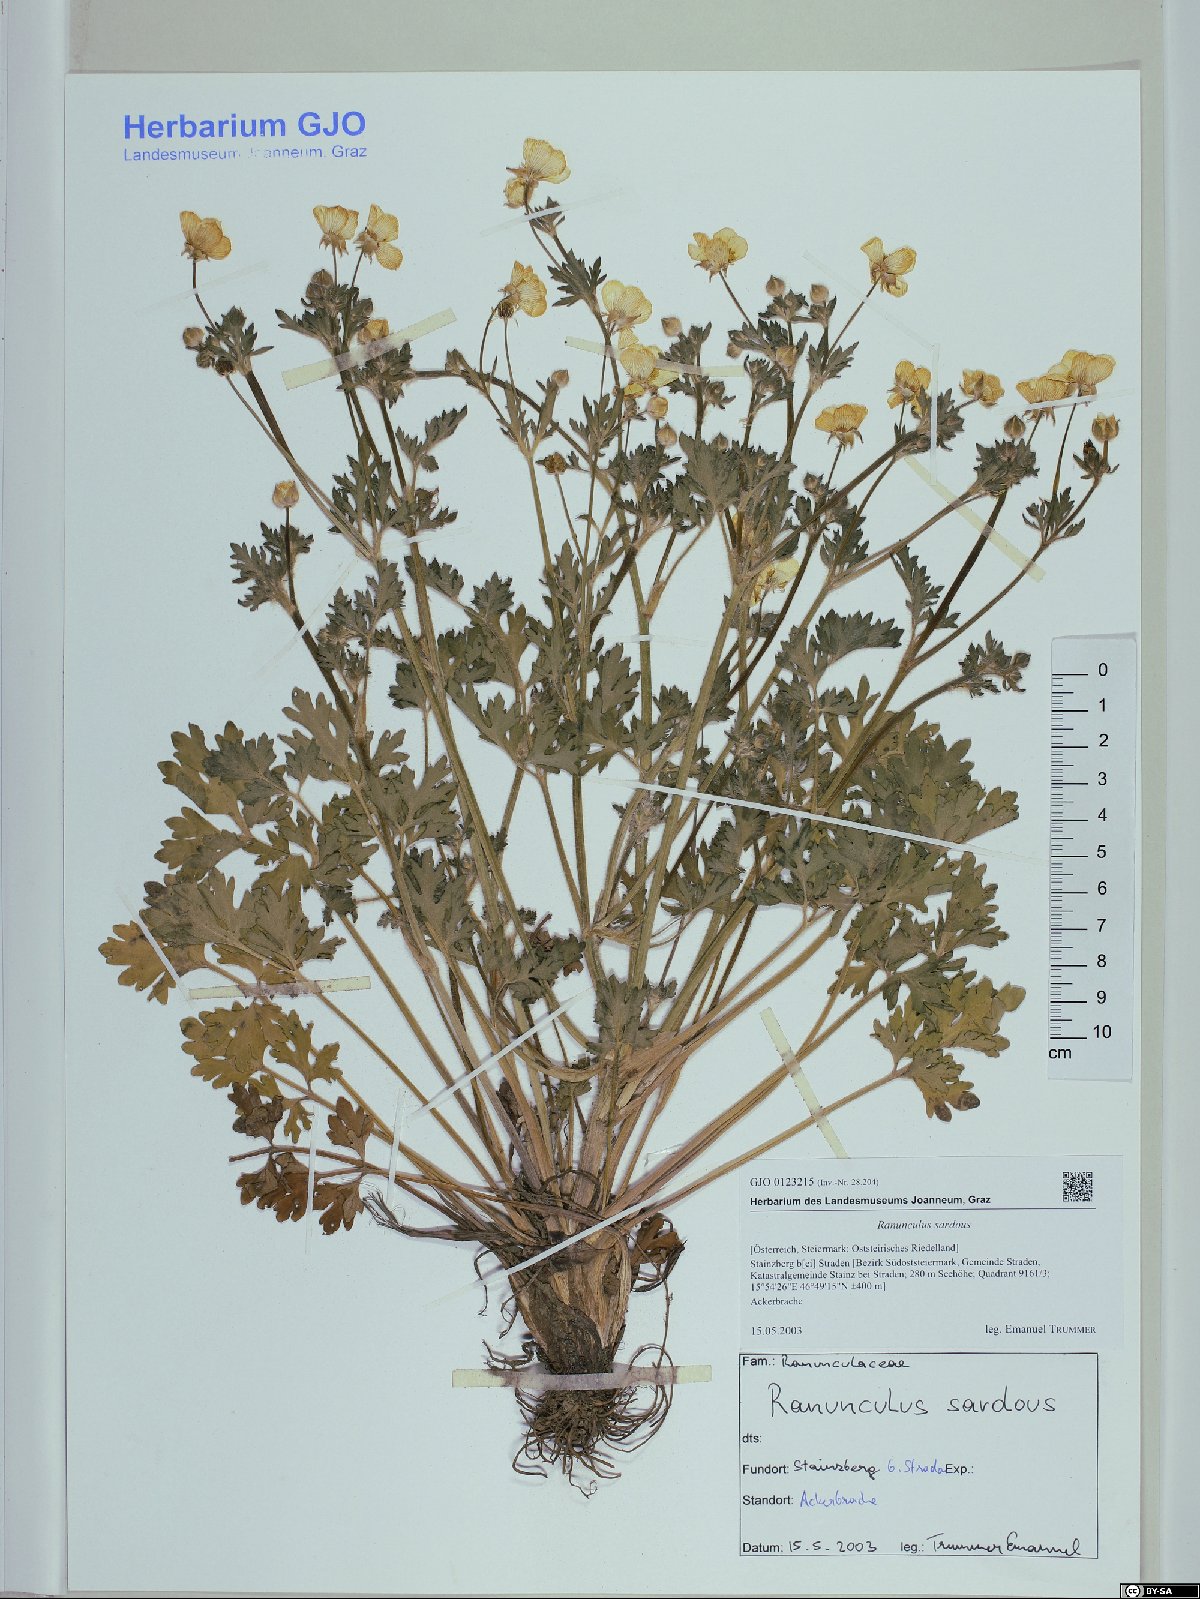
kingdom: Plantae
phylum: Tracheophyta
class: Magnoliopsida
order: Ranunculales
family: Ranunculaceae
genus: Ranunculus
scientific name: Ranunculus sardous
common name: Hairy buttercup
